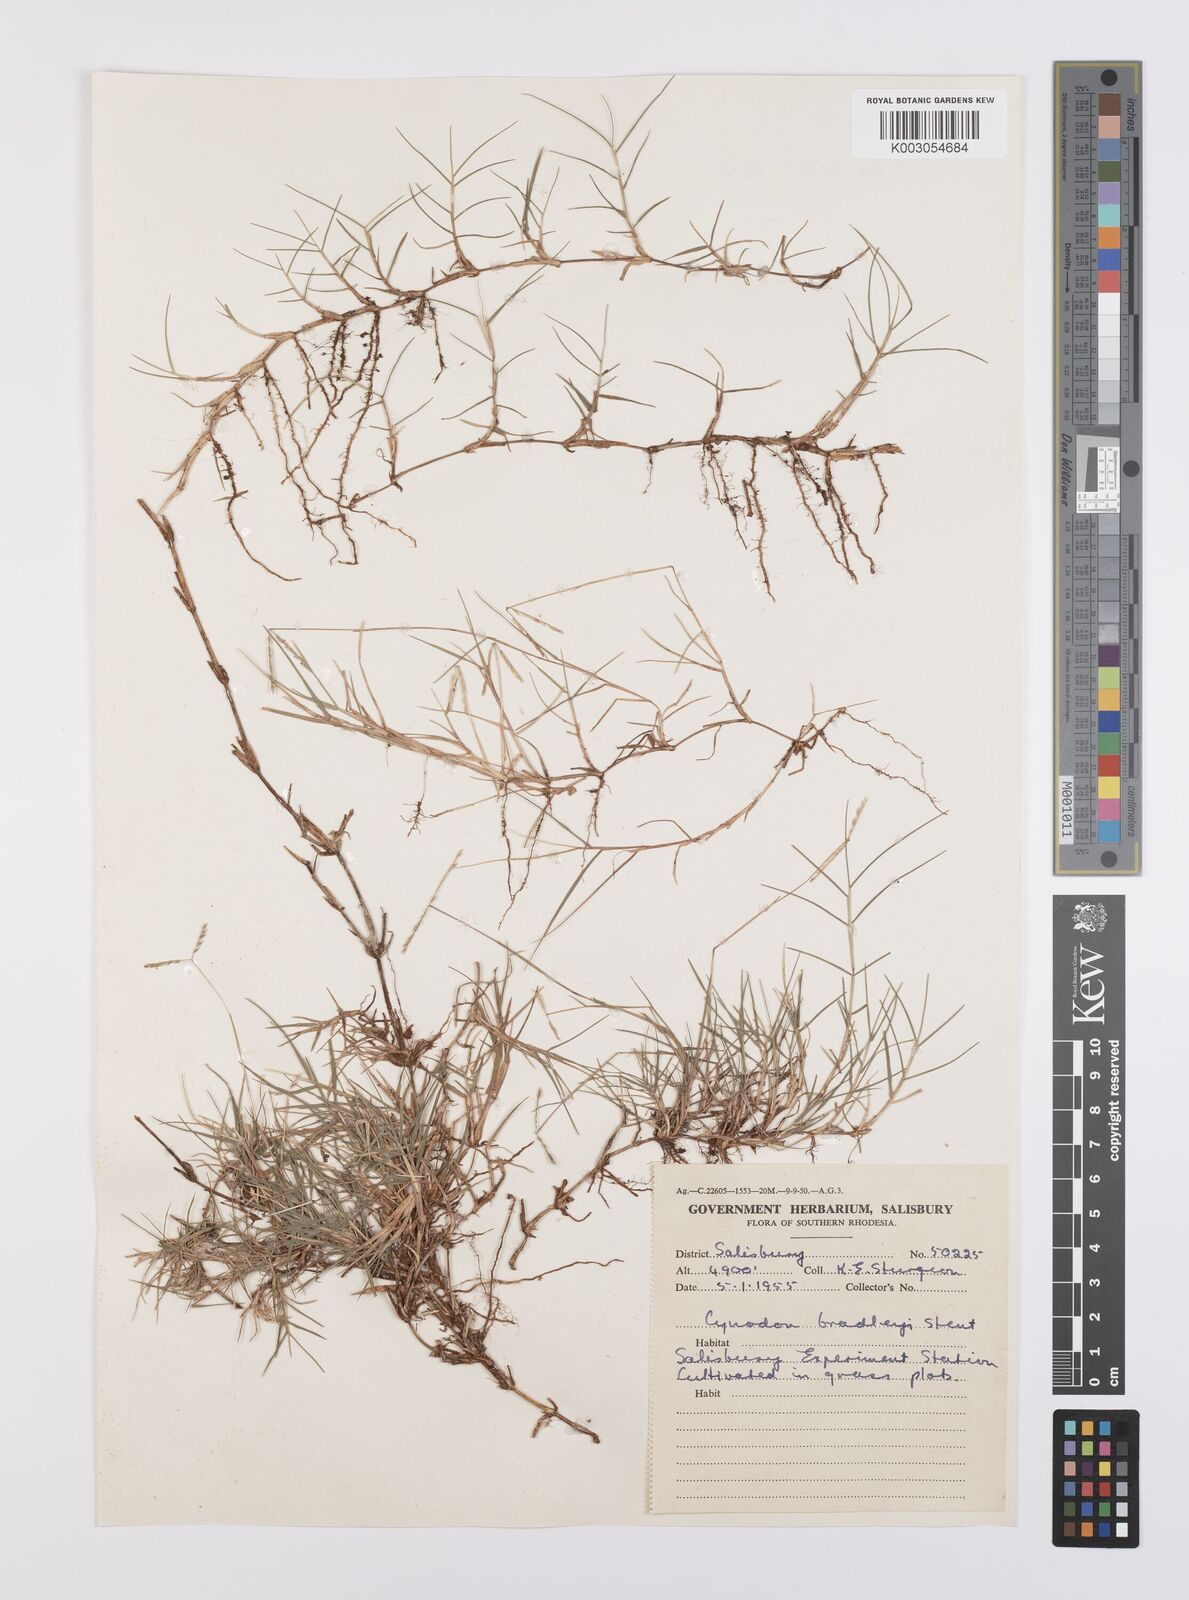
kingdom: Plantae
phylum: Tracheophyta
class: Liliopsida
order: Poales
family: Poaceae
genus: Cynodon
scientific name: Cynodon magennisii
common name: Bermudagrass
